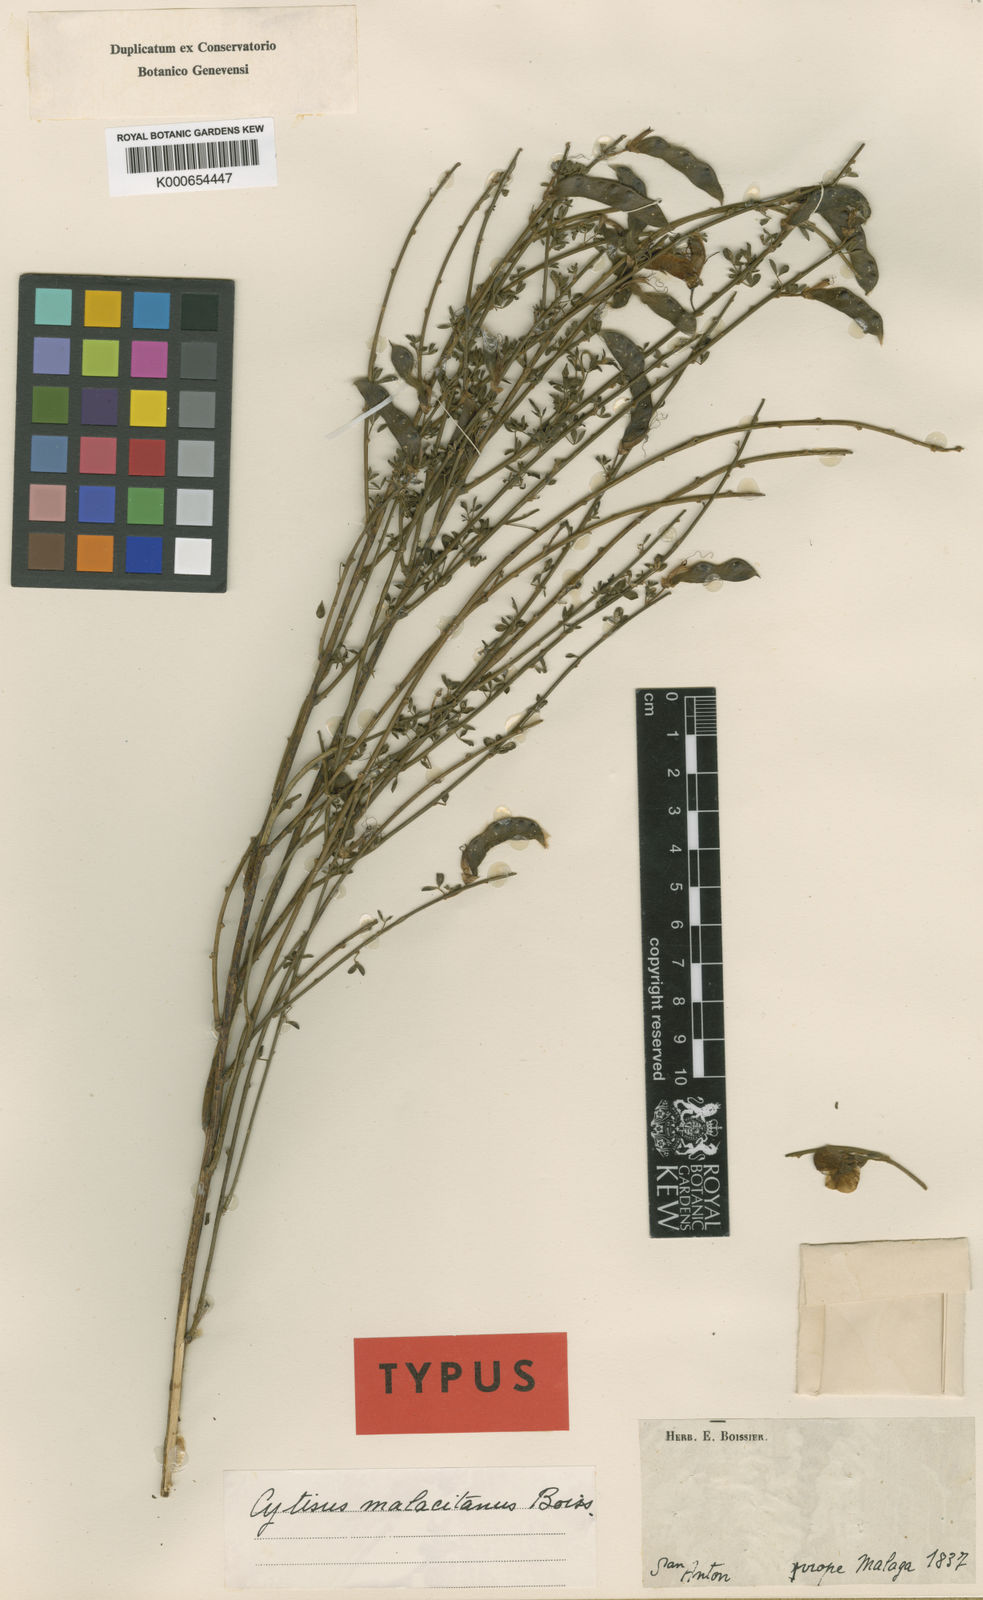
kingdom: Plantae
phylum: Tracheophyta
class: Magnoliopsida
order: Fabales
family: Fabaceae
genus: Cytisus
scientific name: Cytisus malacitanus
